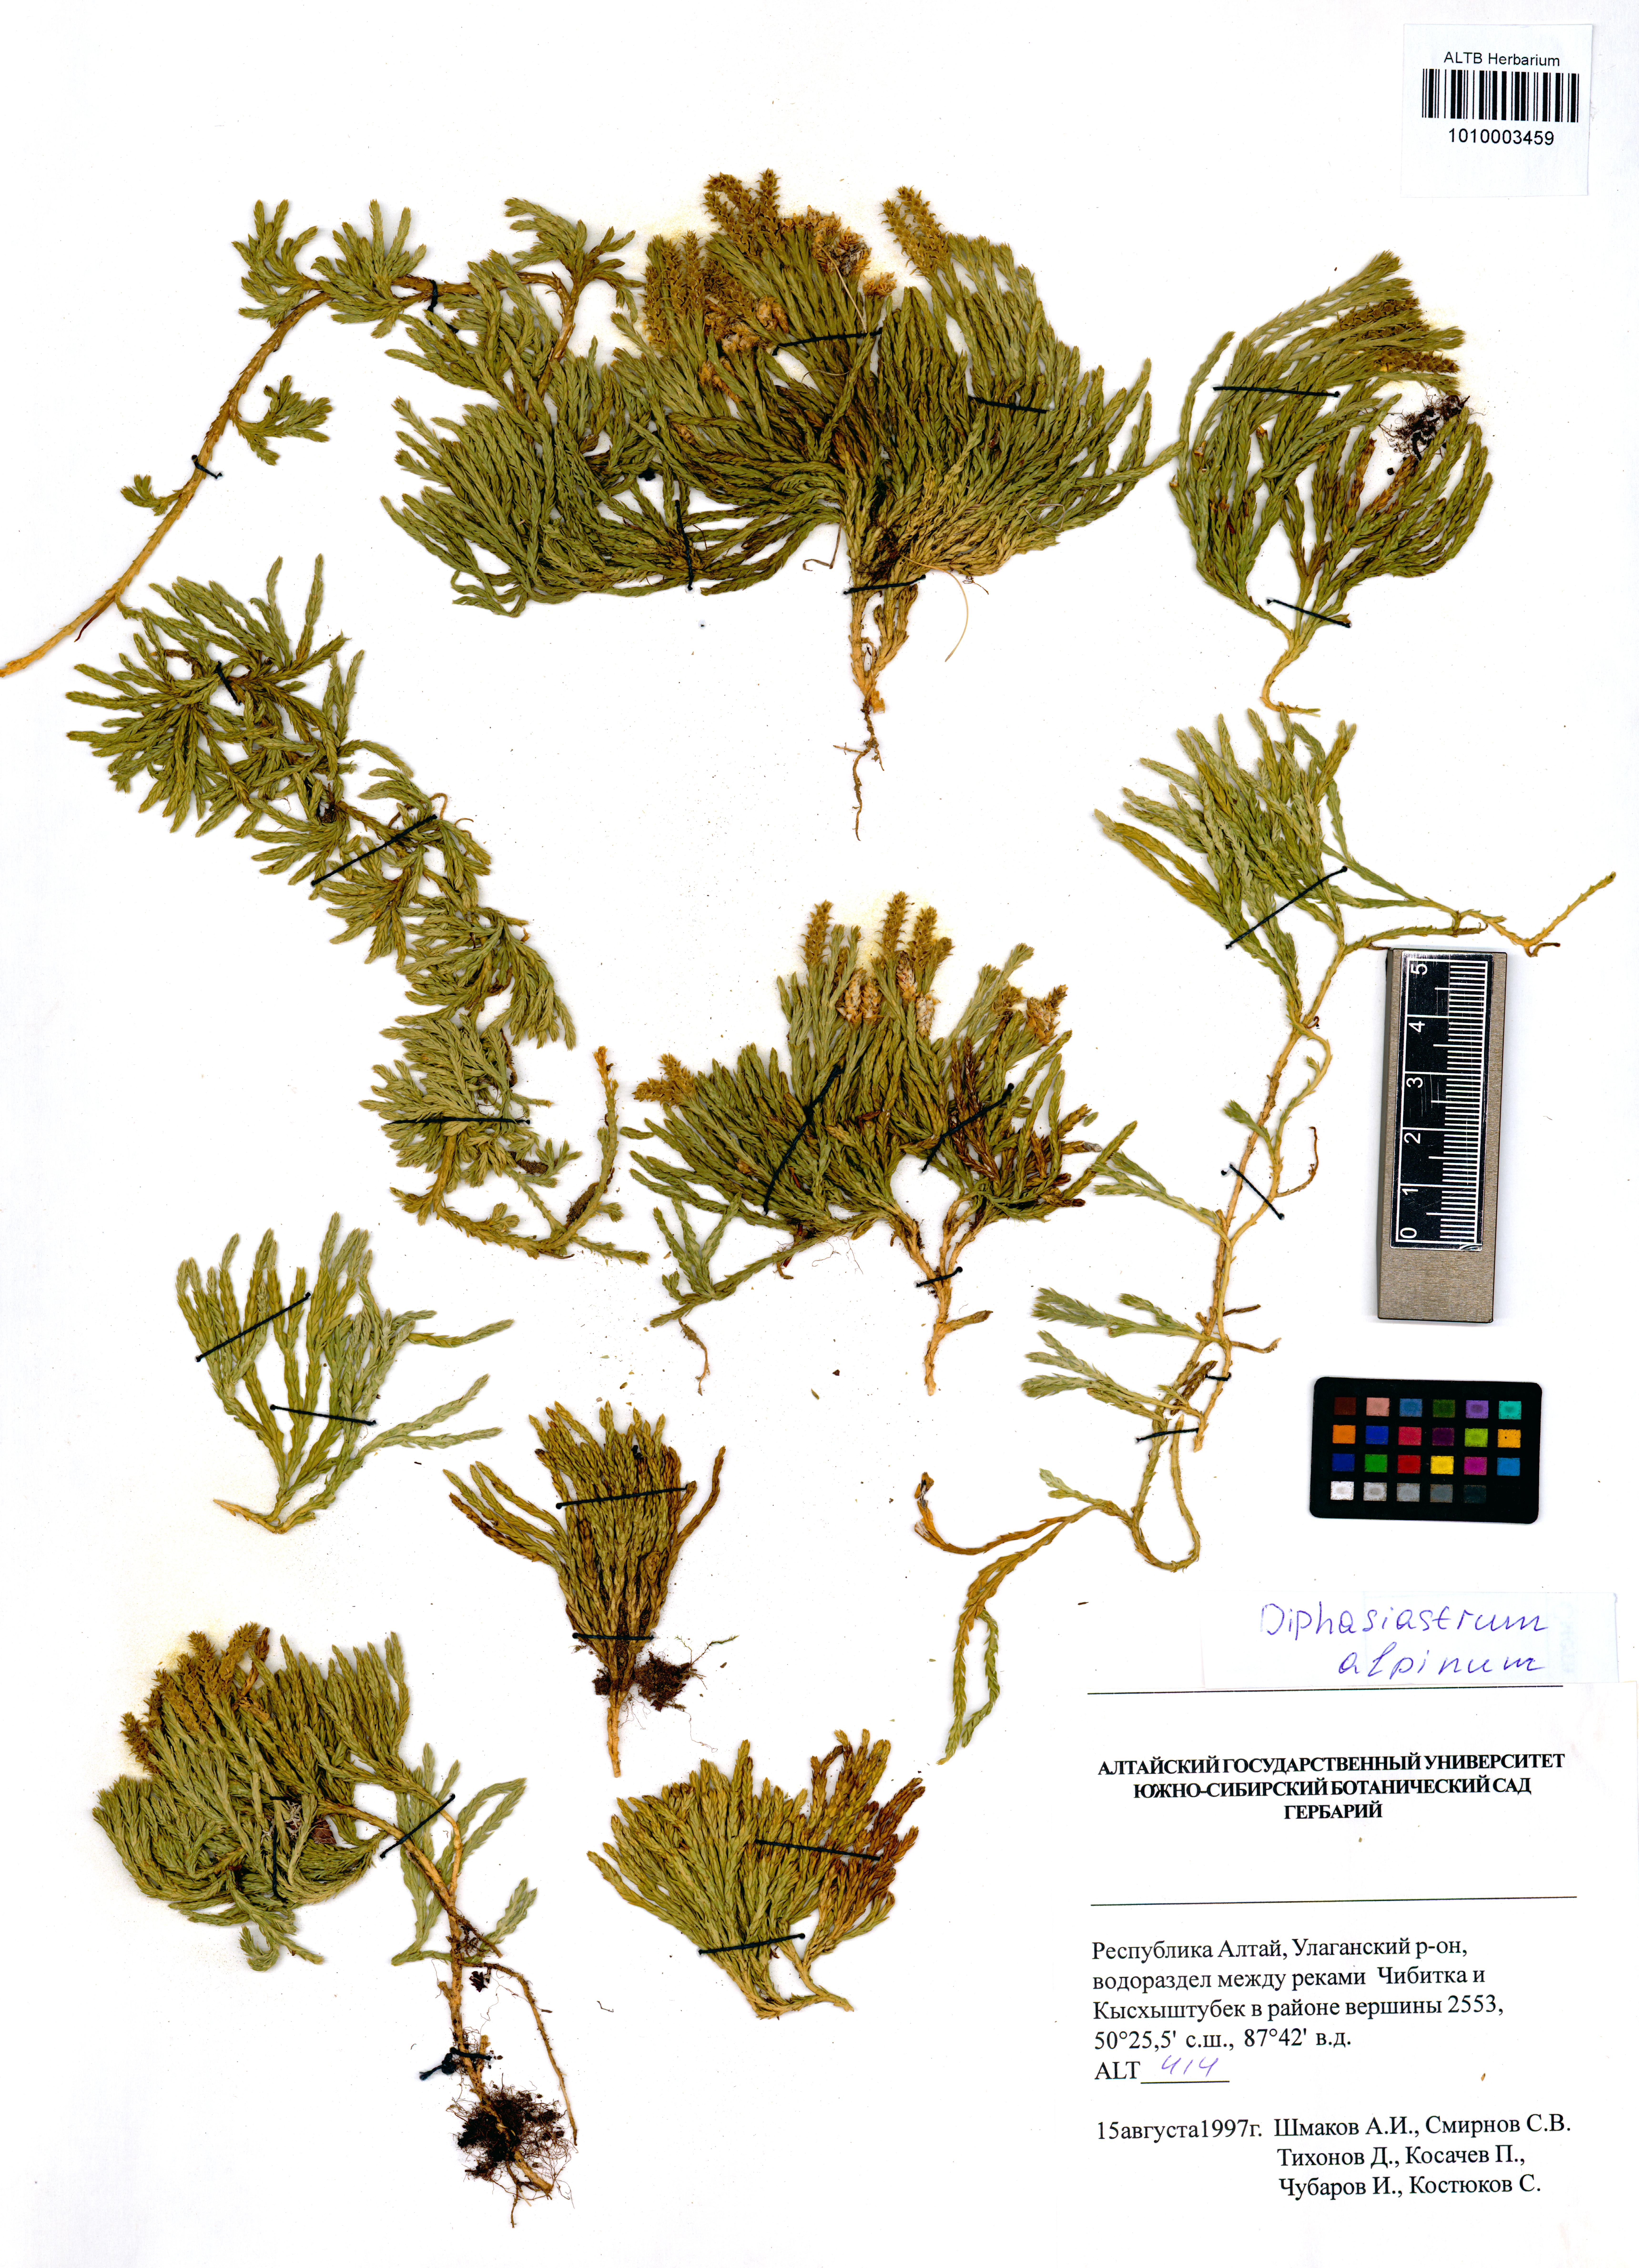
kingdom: Plantae
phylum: Tracheophyta
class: Lycopodiopsida
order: Lycopodiales
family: Lycopodiaceae
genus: Diphasiastrum
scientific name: Diphasiastrum alpinum
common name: Alpine clubmoss
